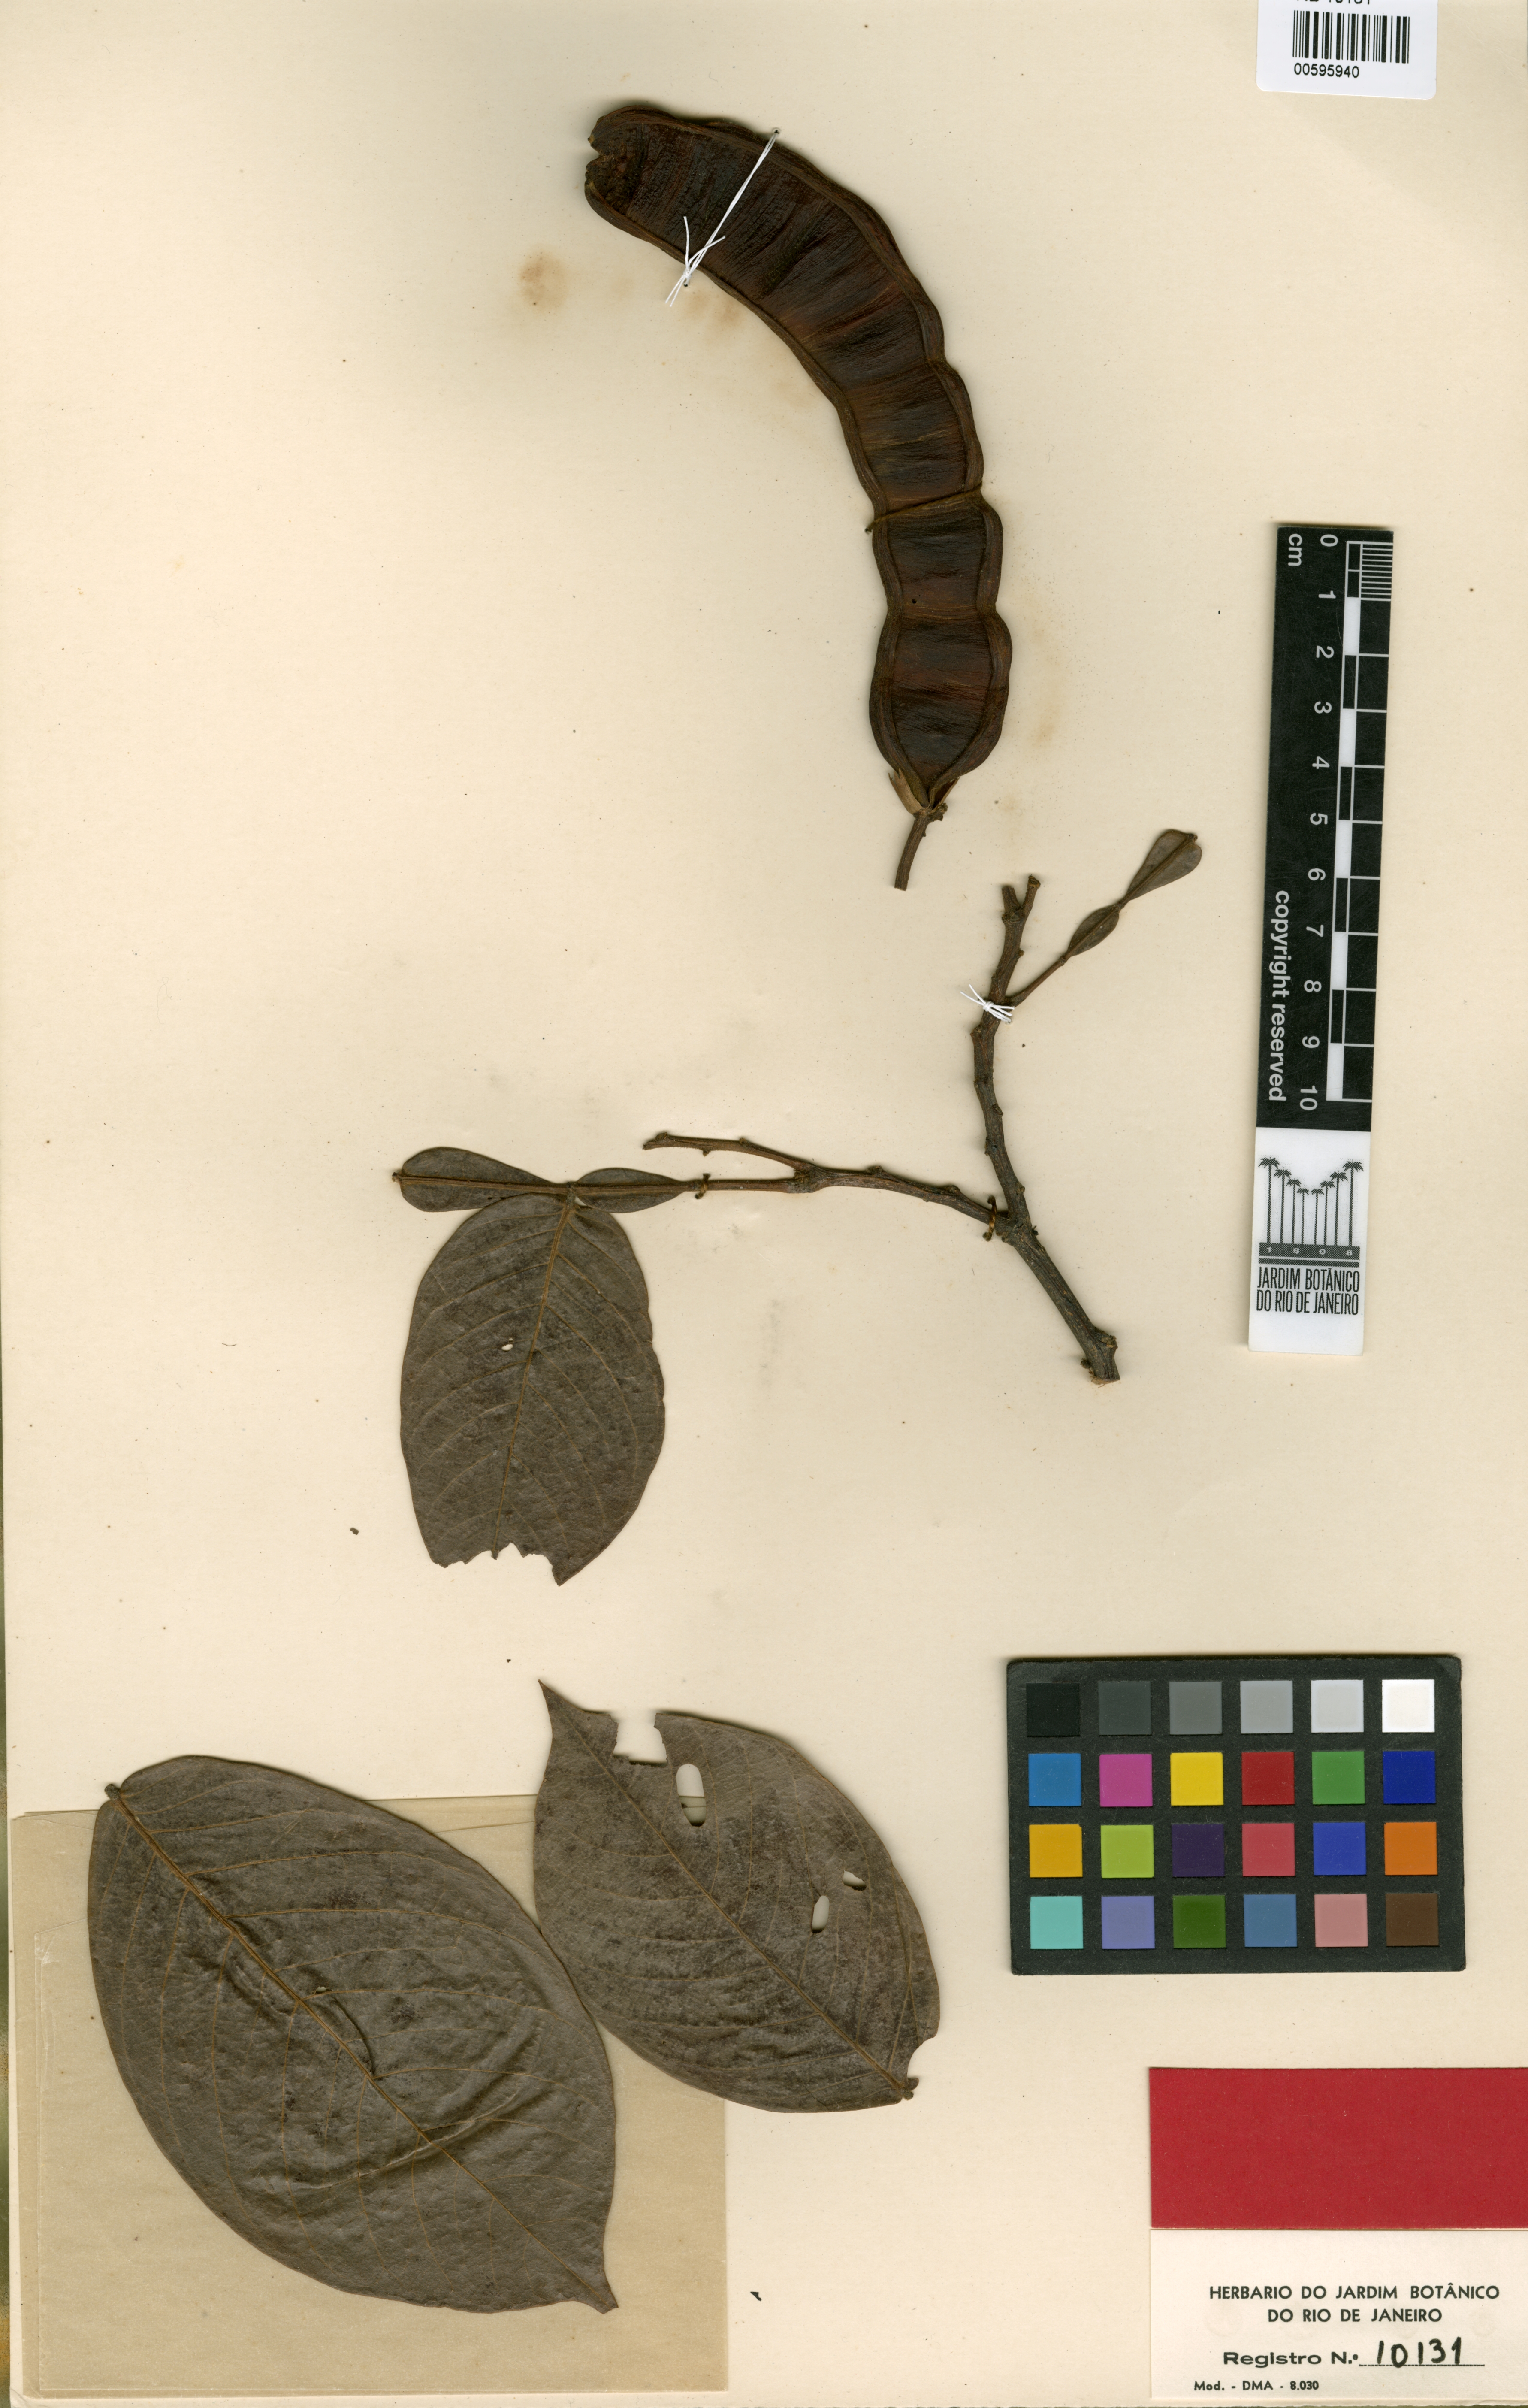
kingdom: Plantae
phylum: Tracheophyta
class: Magnoliopsida
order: Fabales
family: Fabaceae
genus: Inga
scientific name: Inga polyantha
